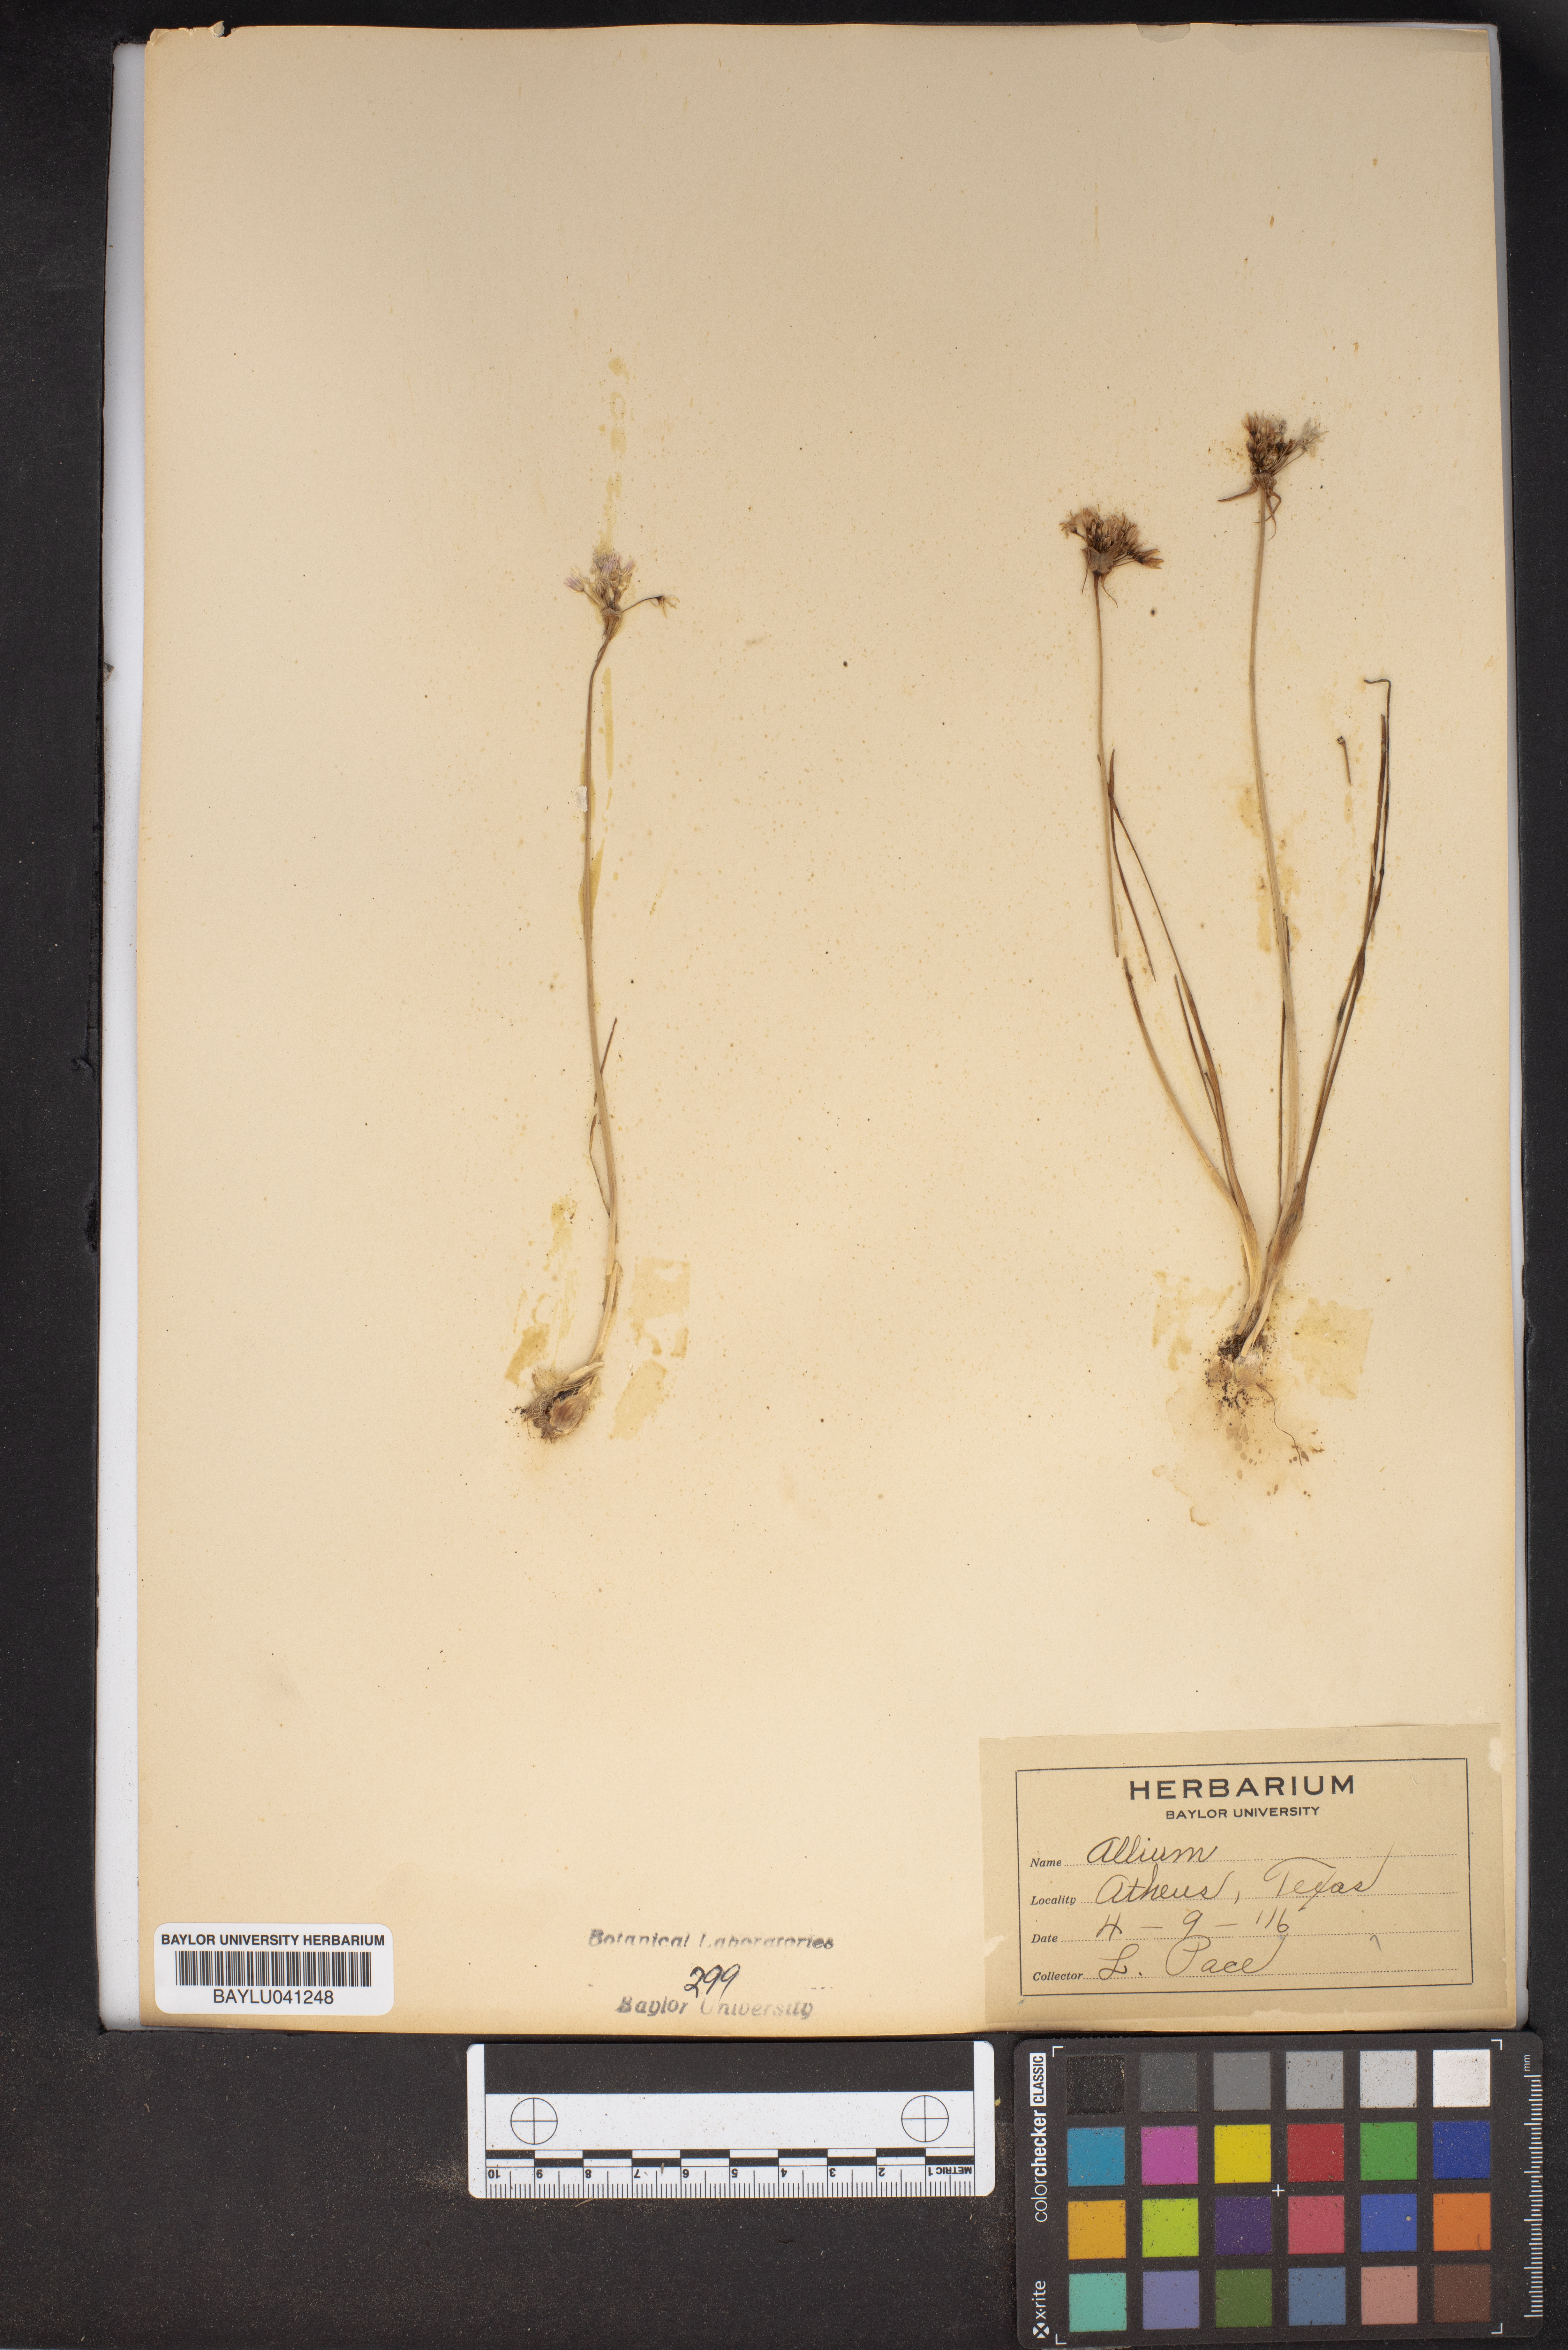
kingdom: Plantae
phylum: Tracheophyta
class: Liliopsida
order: Asparagales
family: Amaryllidaceae
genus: Allium
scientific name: Allium
